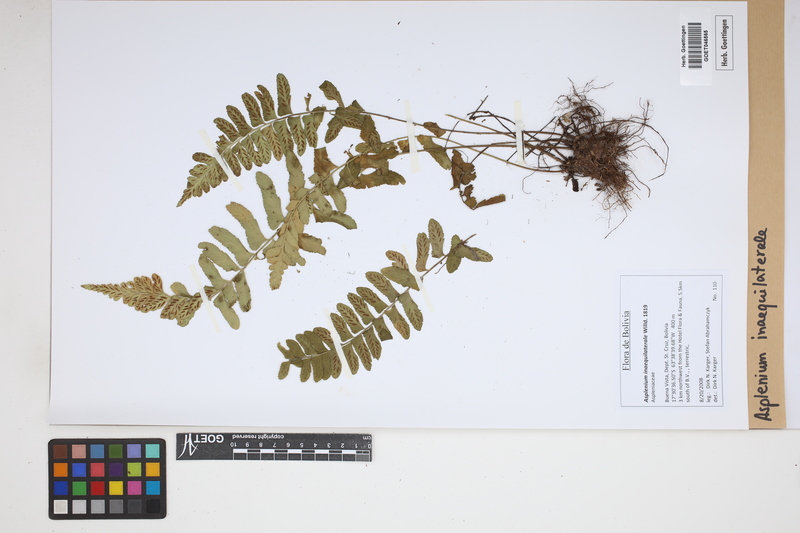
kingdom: Plantae
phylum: Tracheophyta
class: Polypodiopsida
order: Polypodiales
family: Aspleniaceae
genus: Asplenium
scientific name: Asplenium inaequilaterale
